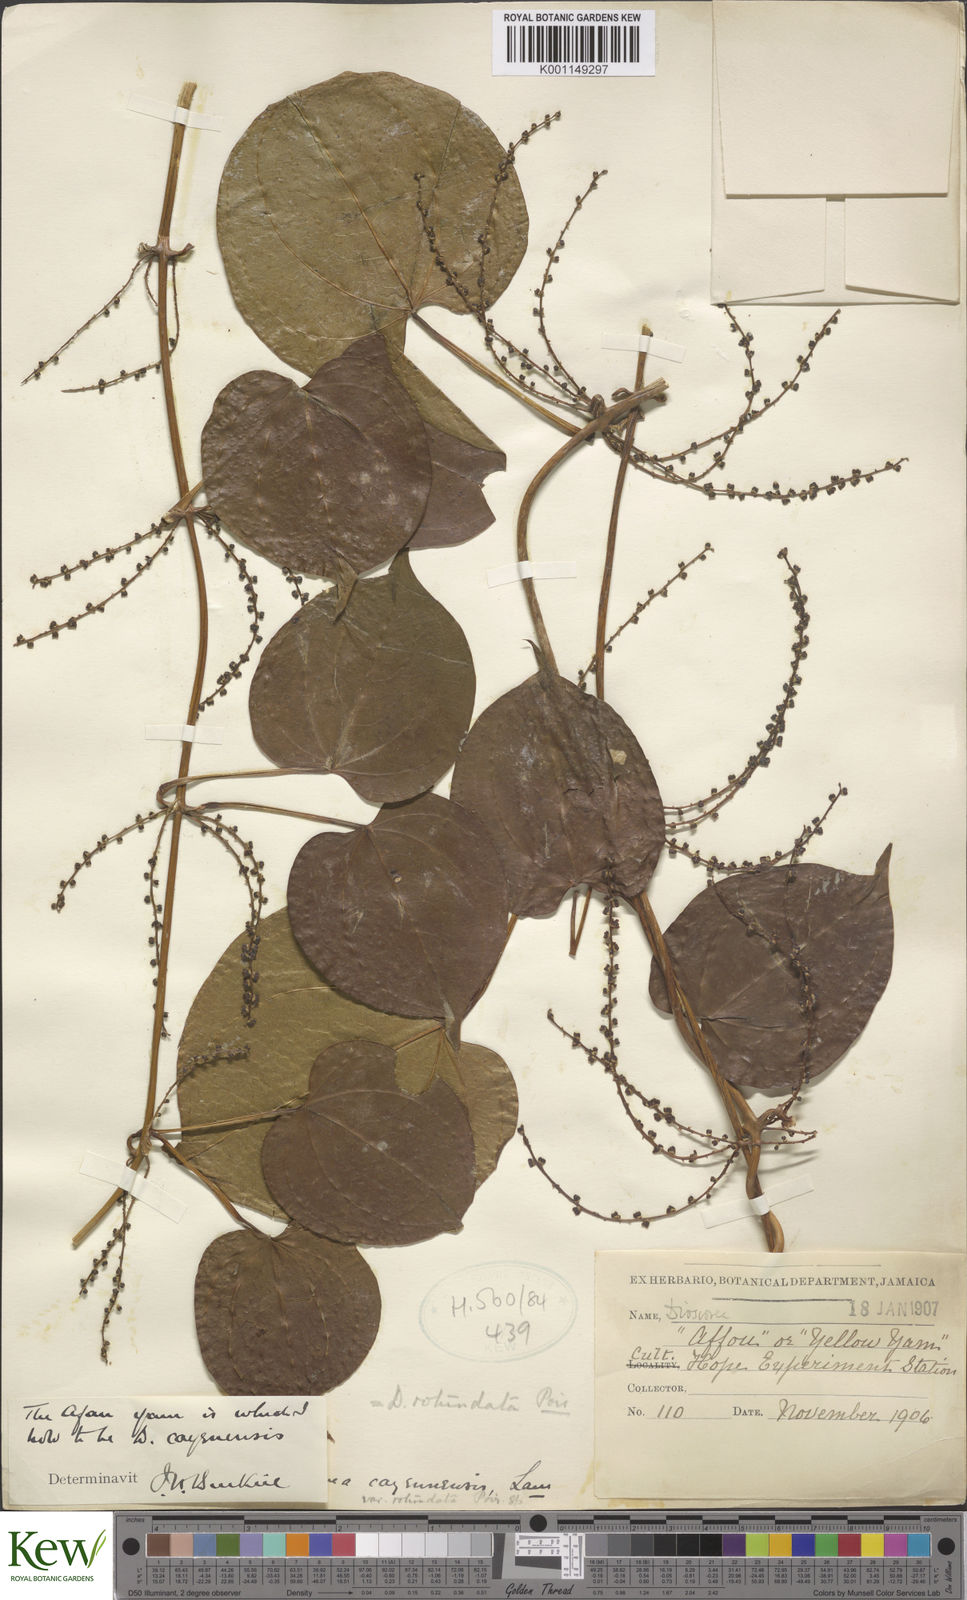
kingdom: Plantae
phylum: Tracheophyta
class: Liliopsida
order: Dioscoreales
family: Dioscoreaceae
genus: Dioscorea
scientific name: Dioscorea cayenensis
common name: Attoto yam
